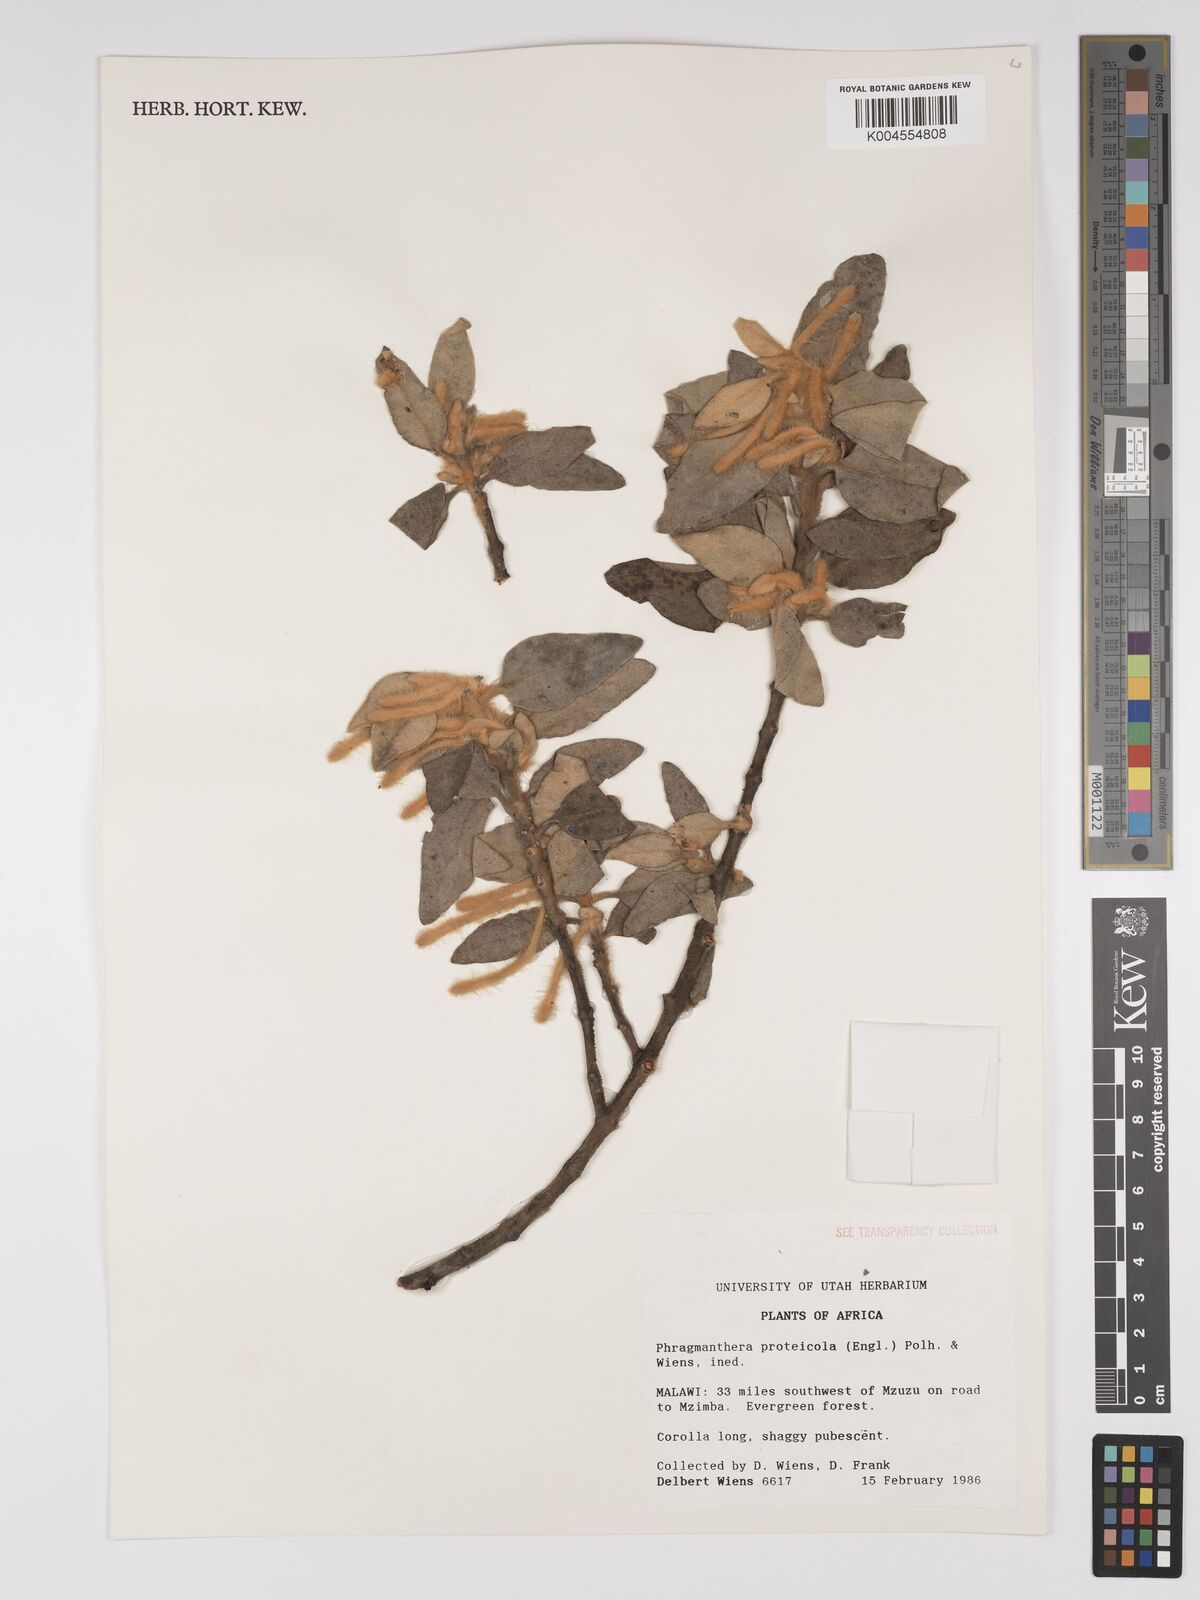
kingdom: Plantae
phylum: Tracheophyta
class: Magnoliopsida
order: Santalales
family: Loranthaceae
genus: Phragmanthera
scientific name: Phragmanthera proteicola
